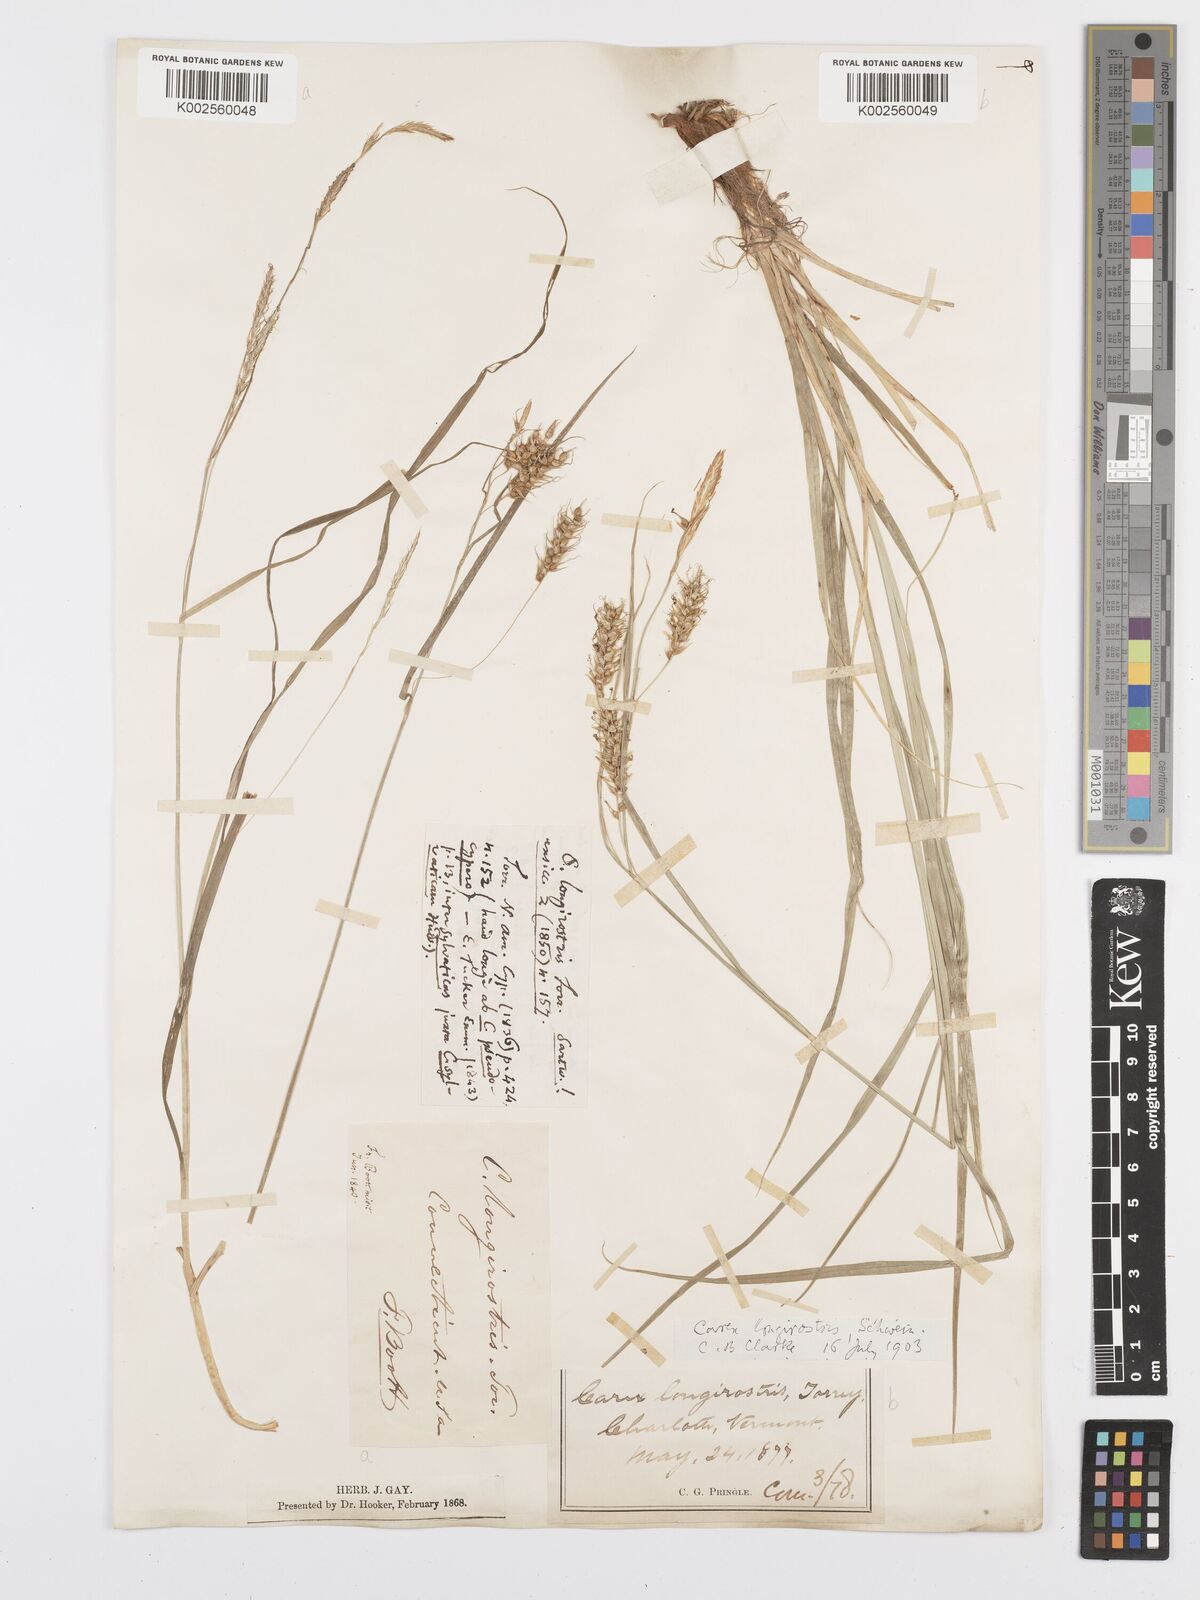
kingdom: Plantae
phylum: Tracheophyta
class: Liliopsida
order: Poales
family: Cyperaceae
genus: Carex
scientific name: Carex sprengelii
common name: Long-beaked sedge
